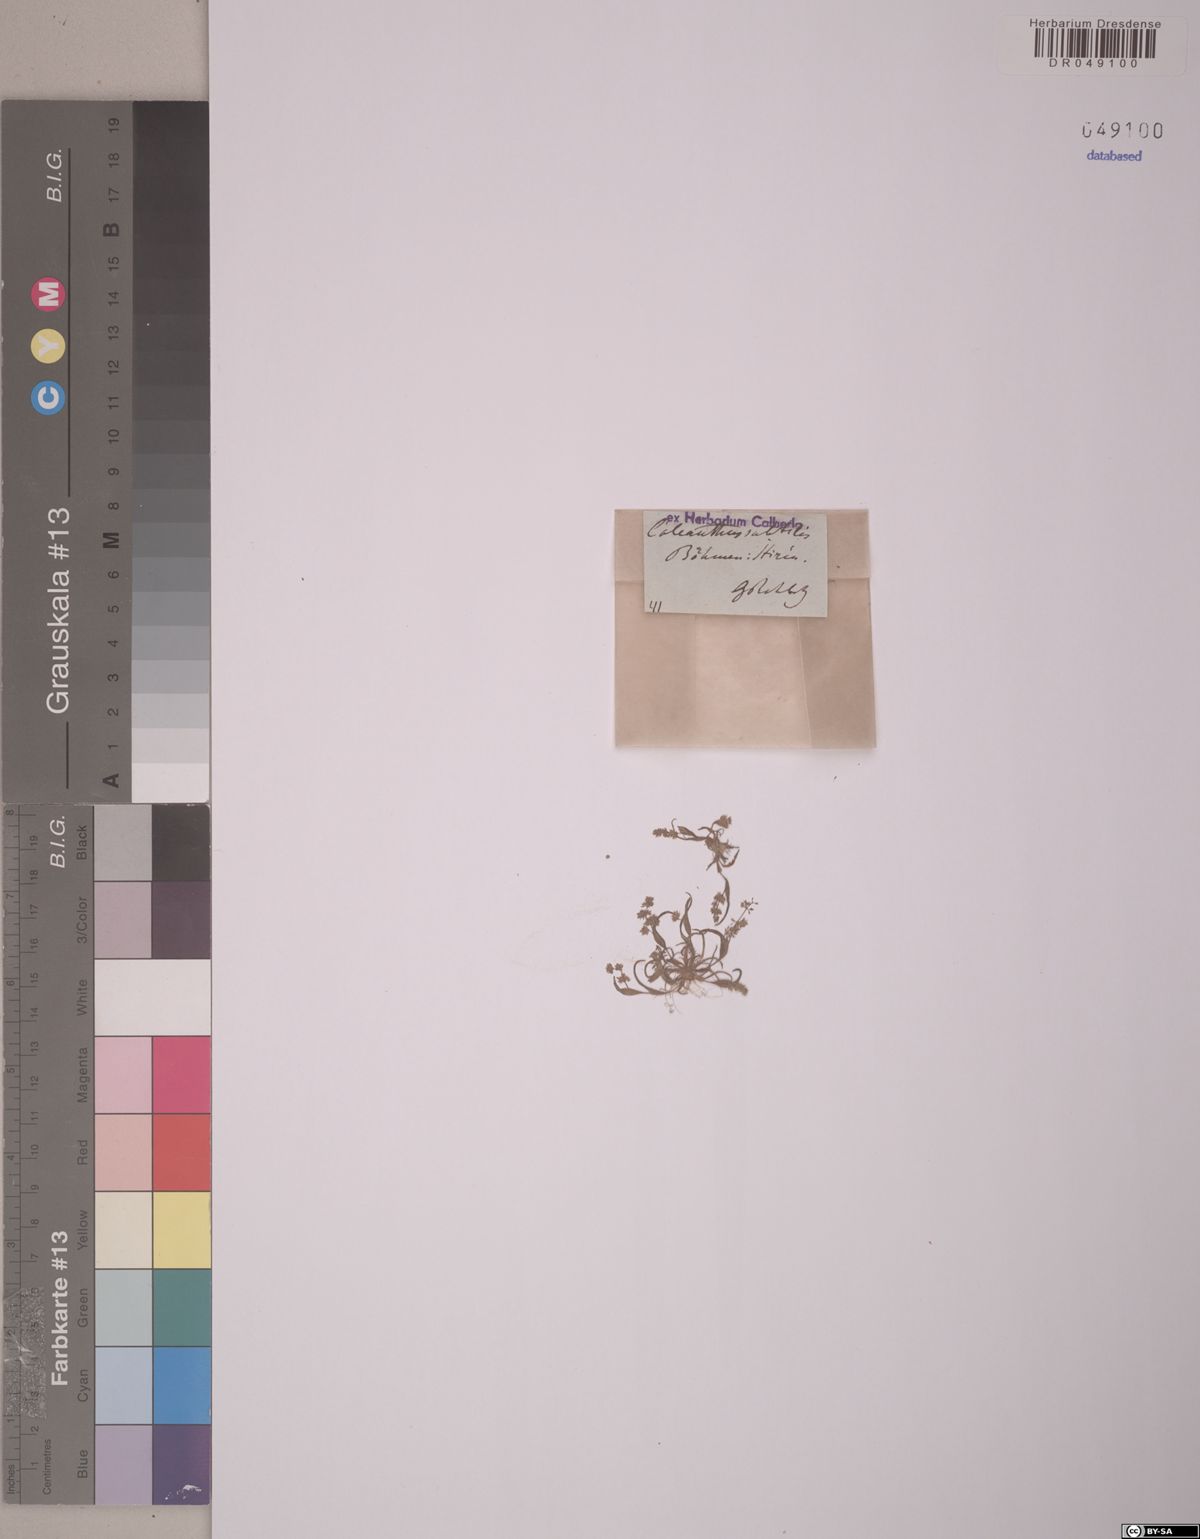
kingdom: Plantae
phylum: Tracheophyta
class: Liliopsida
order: Poales
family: Poaceae
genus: Coleanthus
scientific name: Coleanthus subtilis
